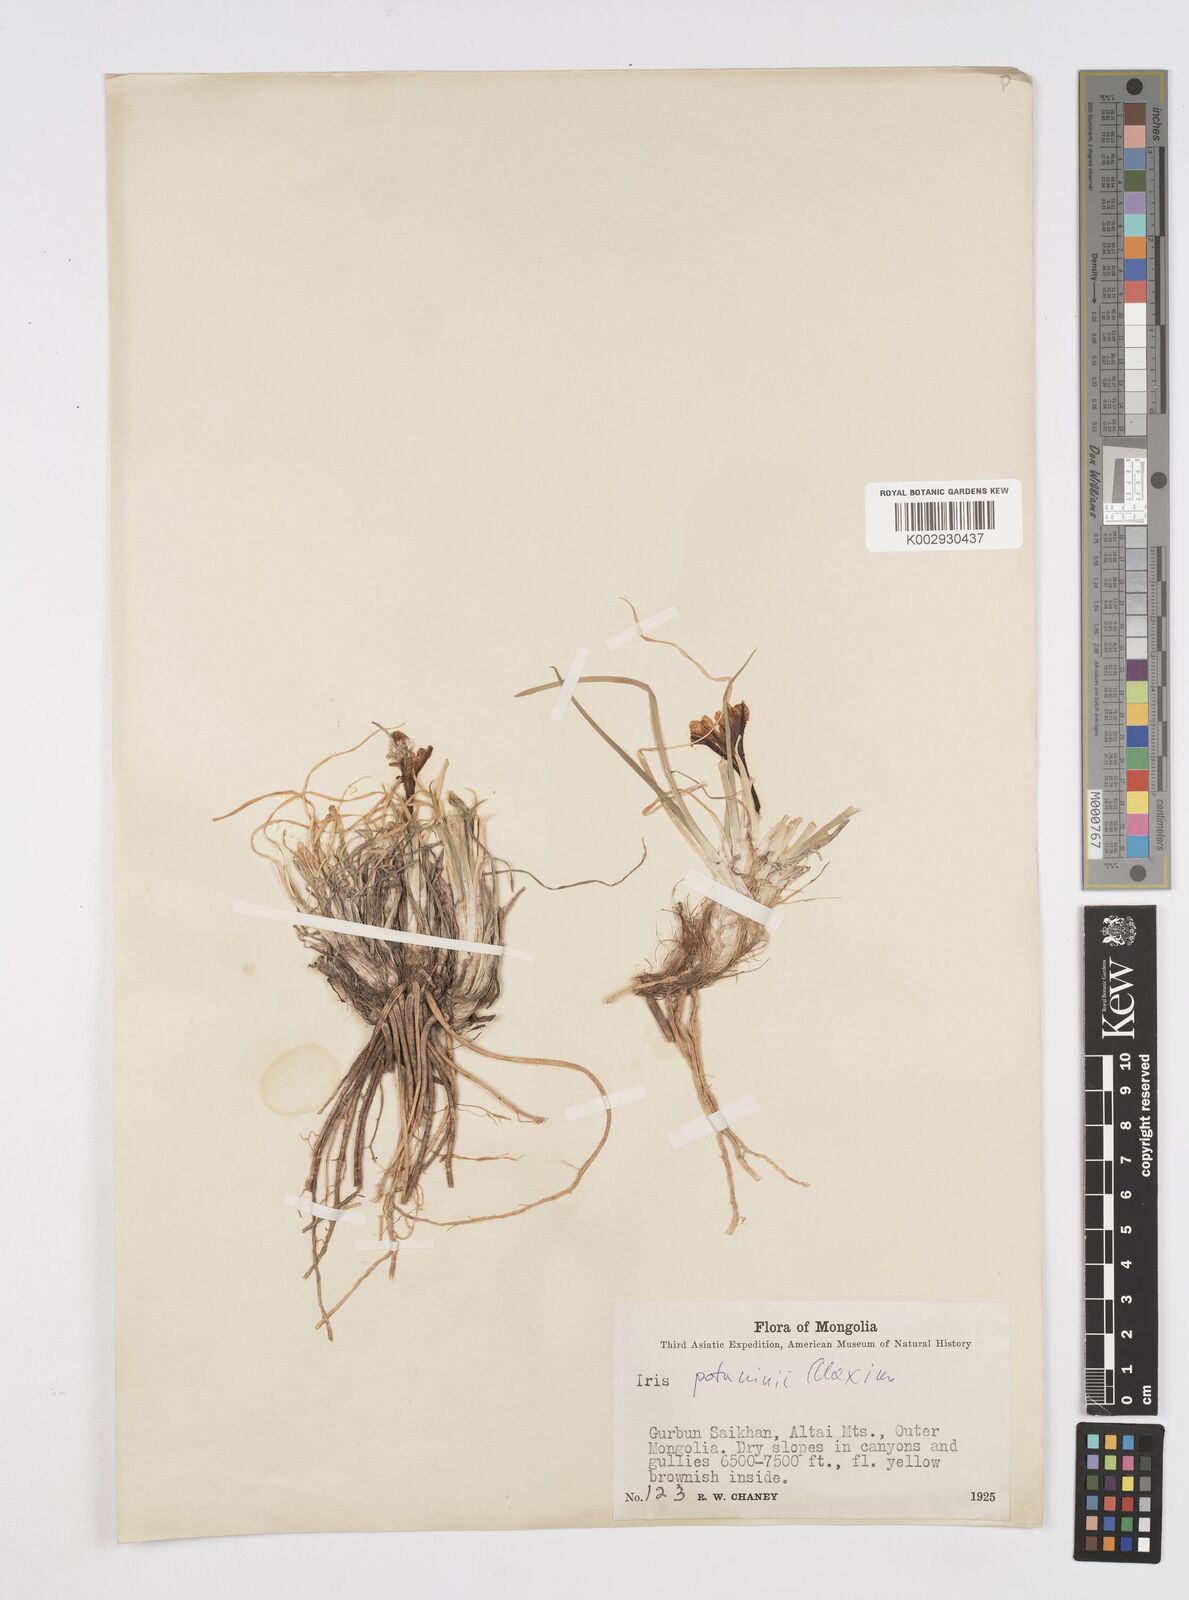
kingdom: Plantae
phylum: Tracheophyta
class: Liliopsida
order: Asparagales
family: Iridaceae
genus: Iris
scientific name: Iris
